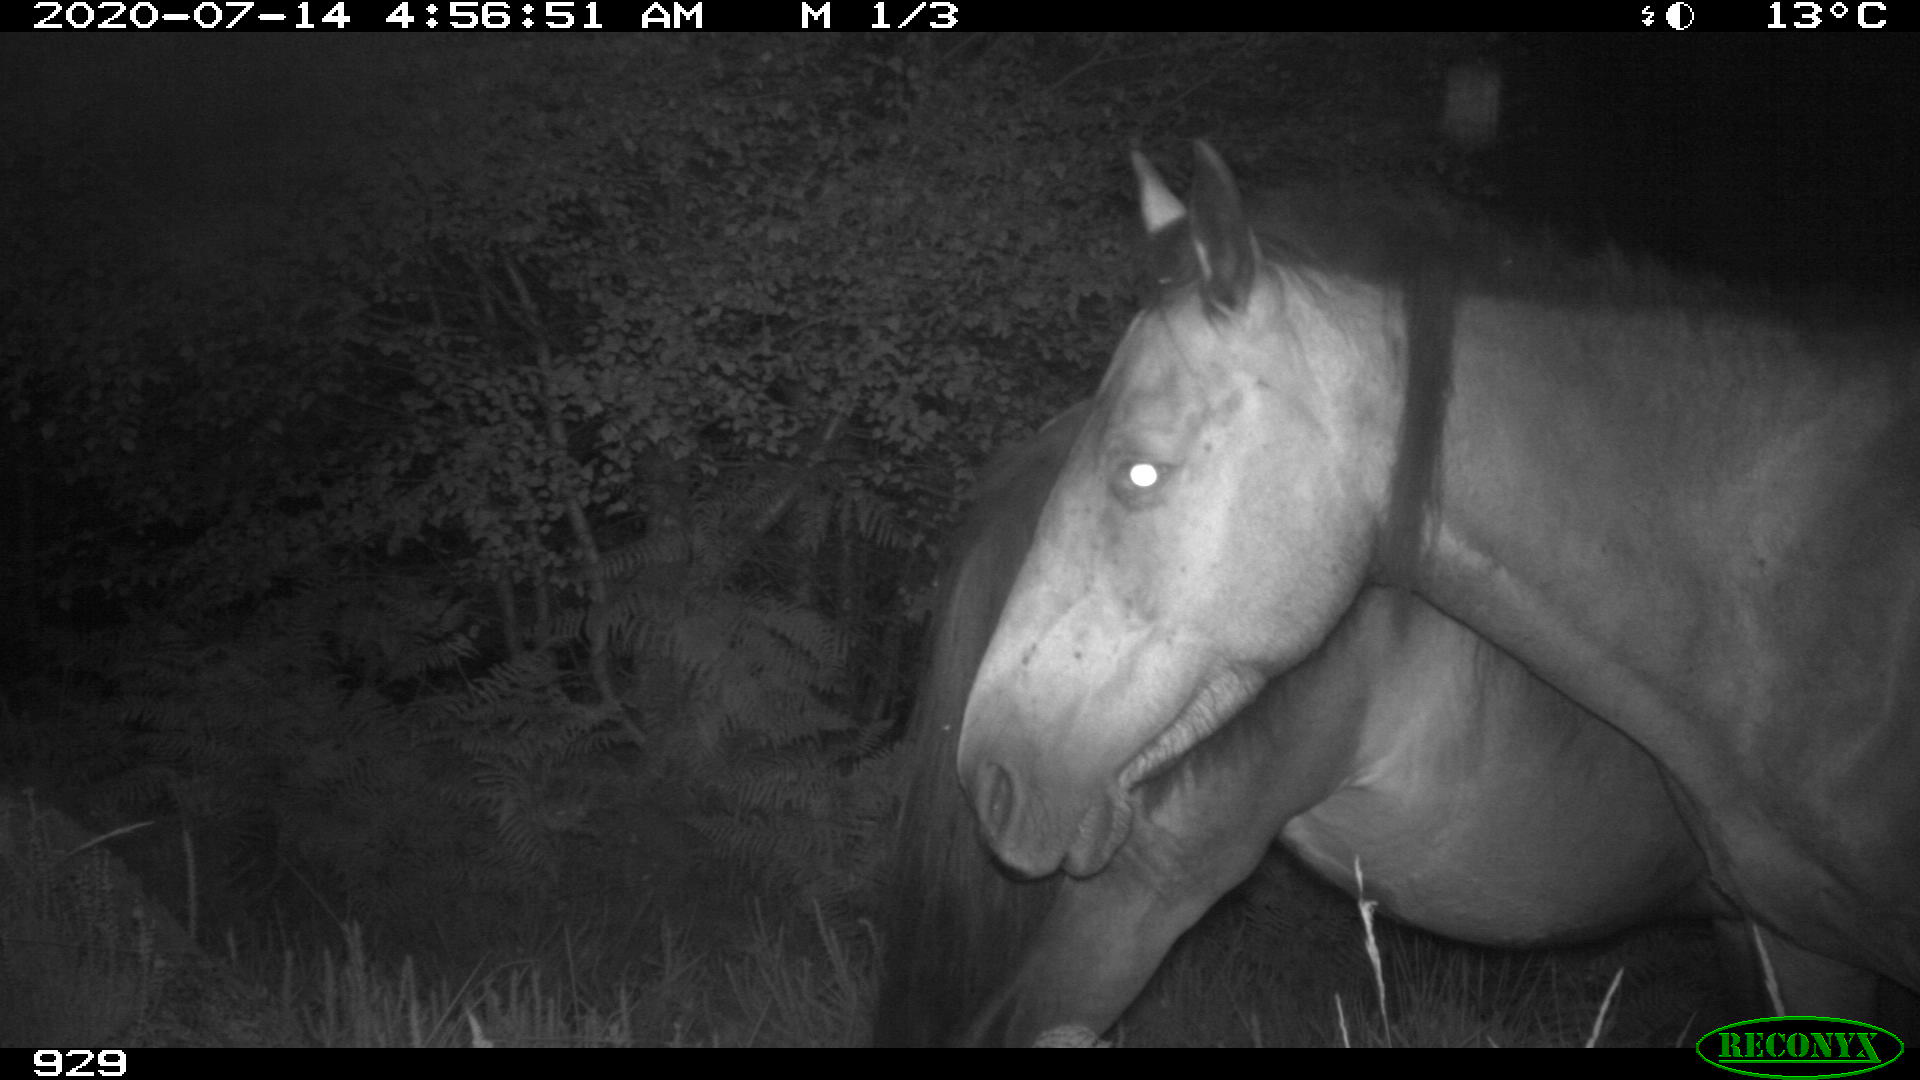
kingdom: Animalia
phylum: Chordata
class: Mammalia
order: Perissodactyla
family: Equidae
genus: Equus
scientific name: Equus caballus
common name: Horse
